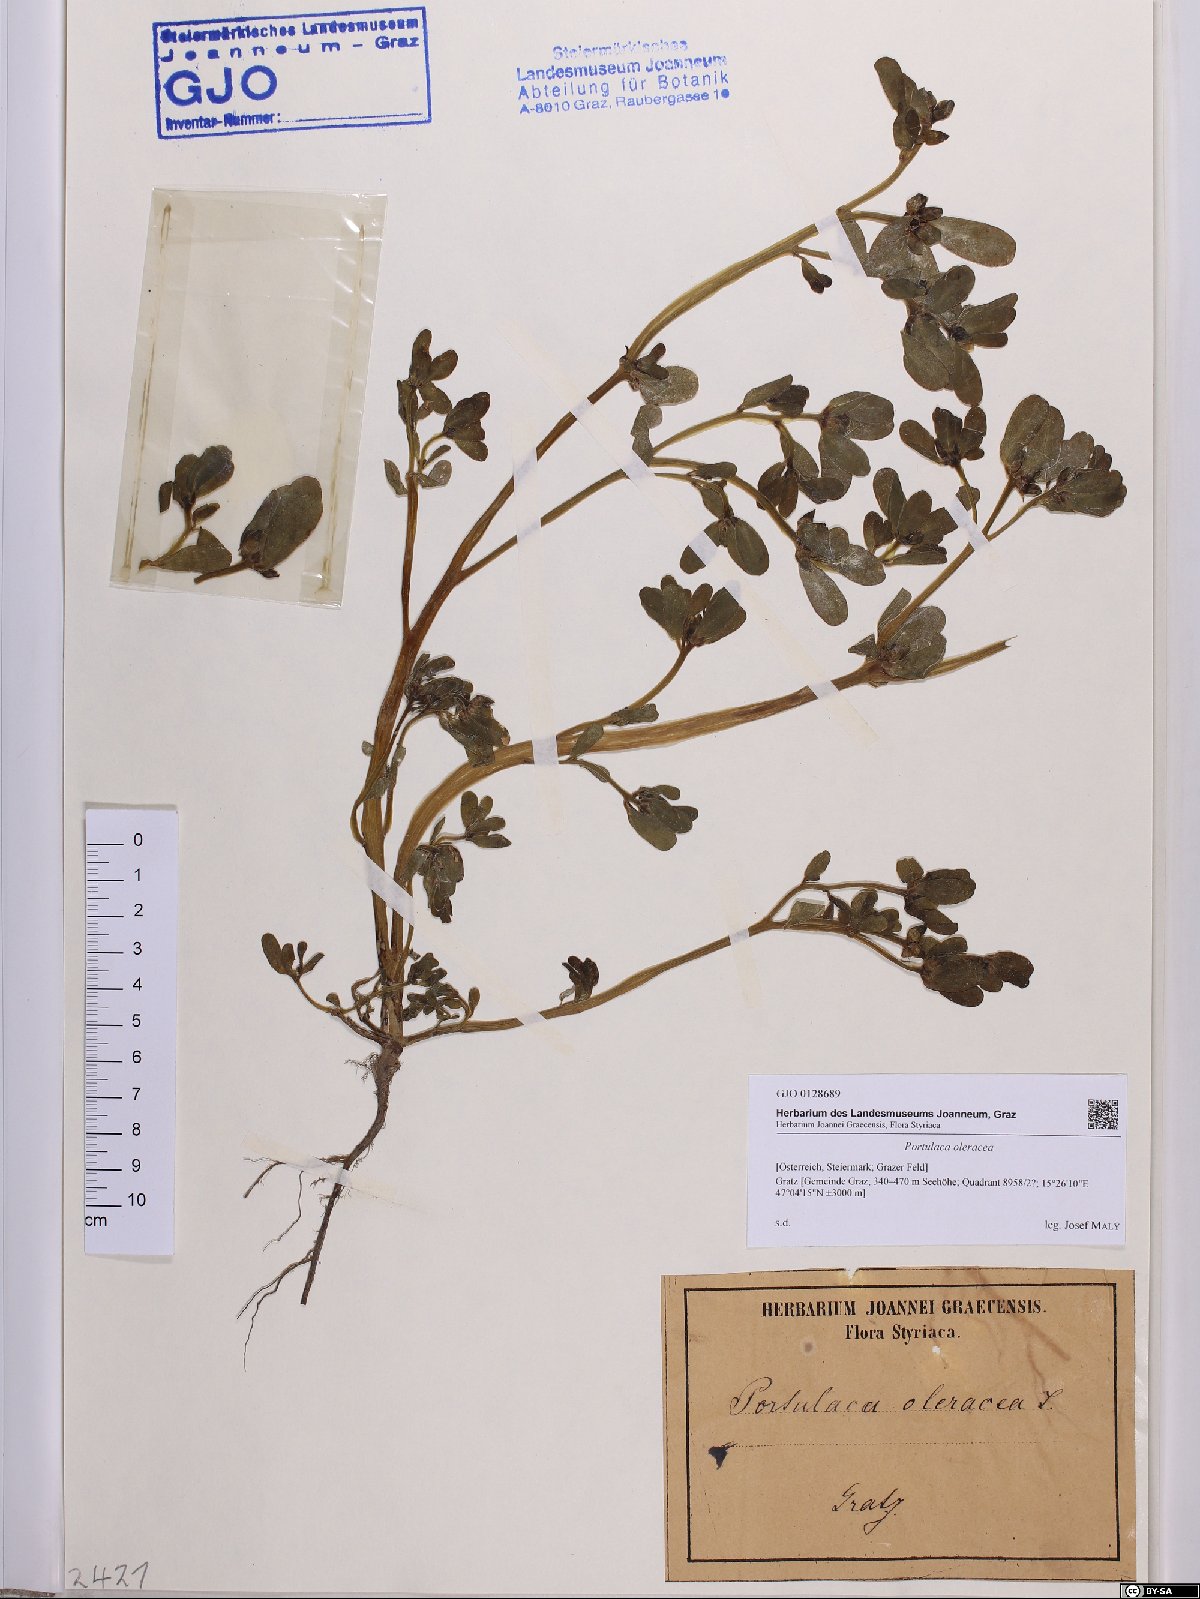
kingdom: Plantae
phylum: Tracheophyta
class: Magnoliopsida
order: Caryophyllales
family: Portulacaceae
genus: Portulaca
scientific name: Portulaca oleracea
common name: Common purslane
